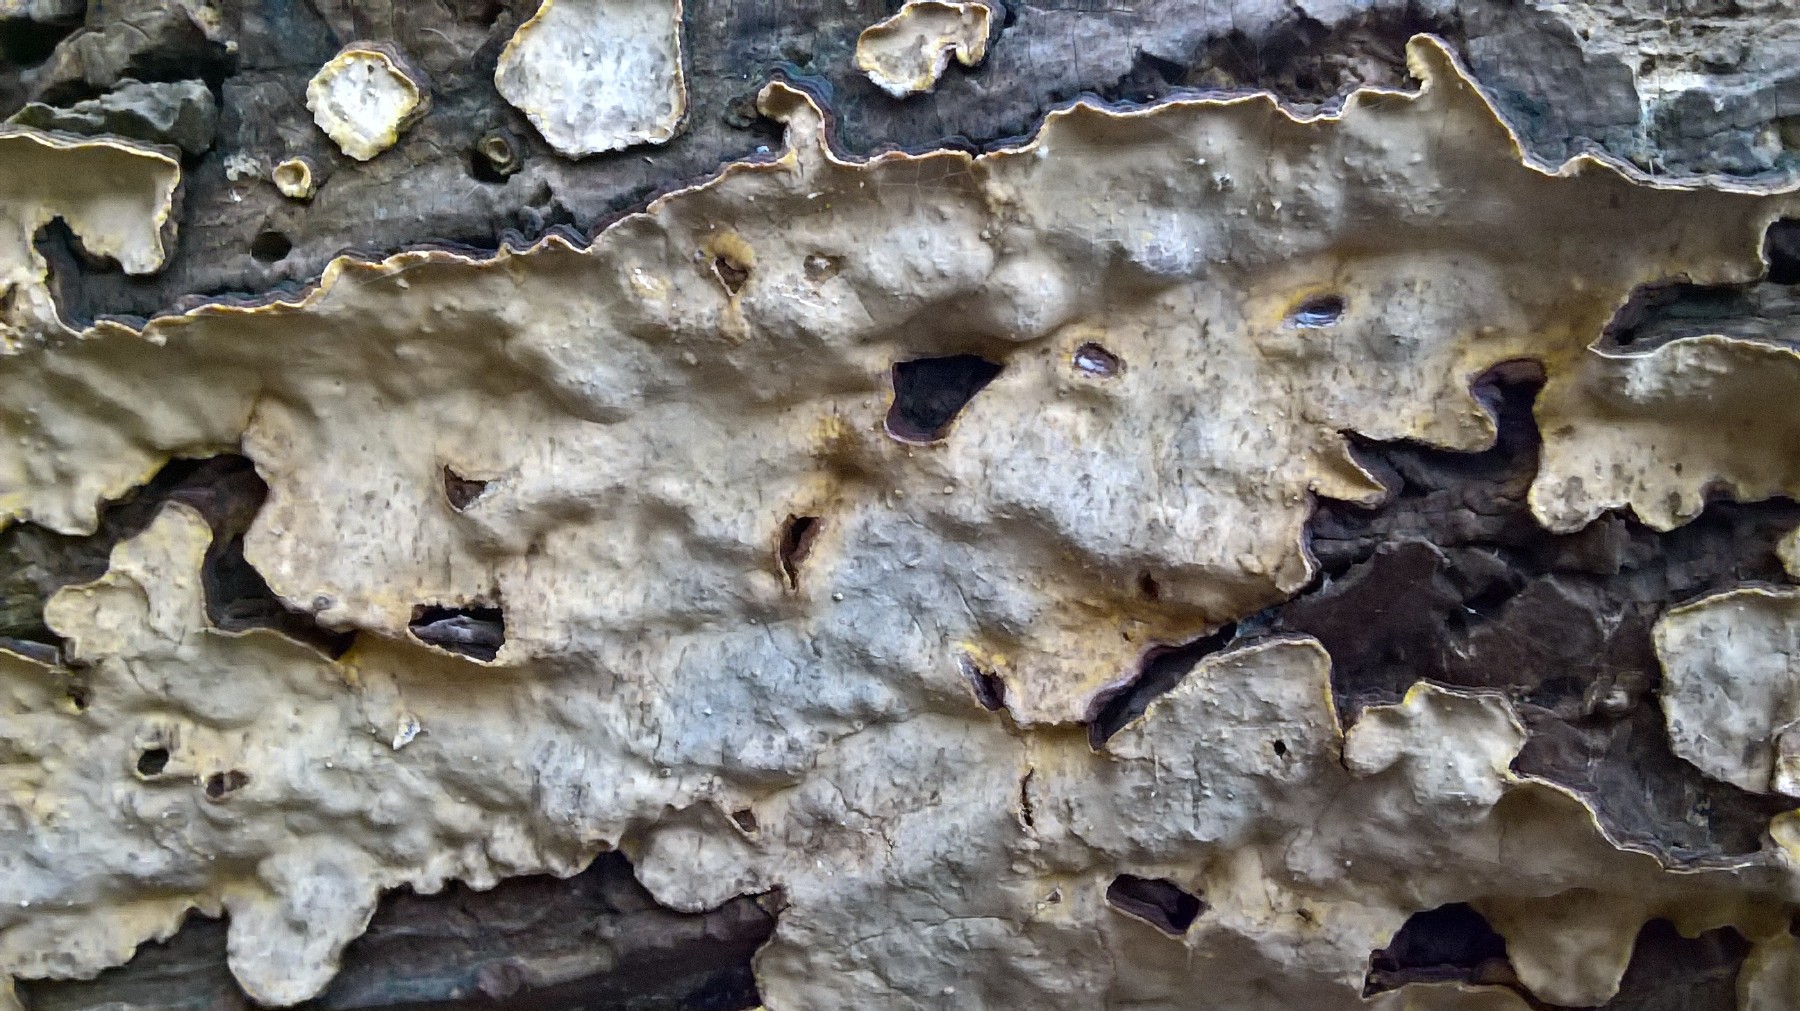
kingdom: Fungi
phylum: Basidiomycota
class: Agaricomycetes
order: Russulales
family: Peniophoraceae
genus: Peniophora
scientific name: Peniophora rufomarginata
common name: linde-voksskind
